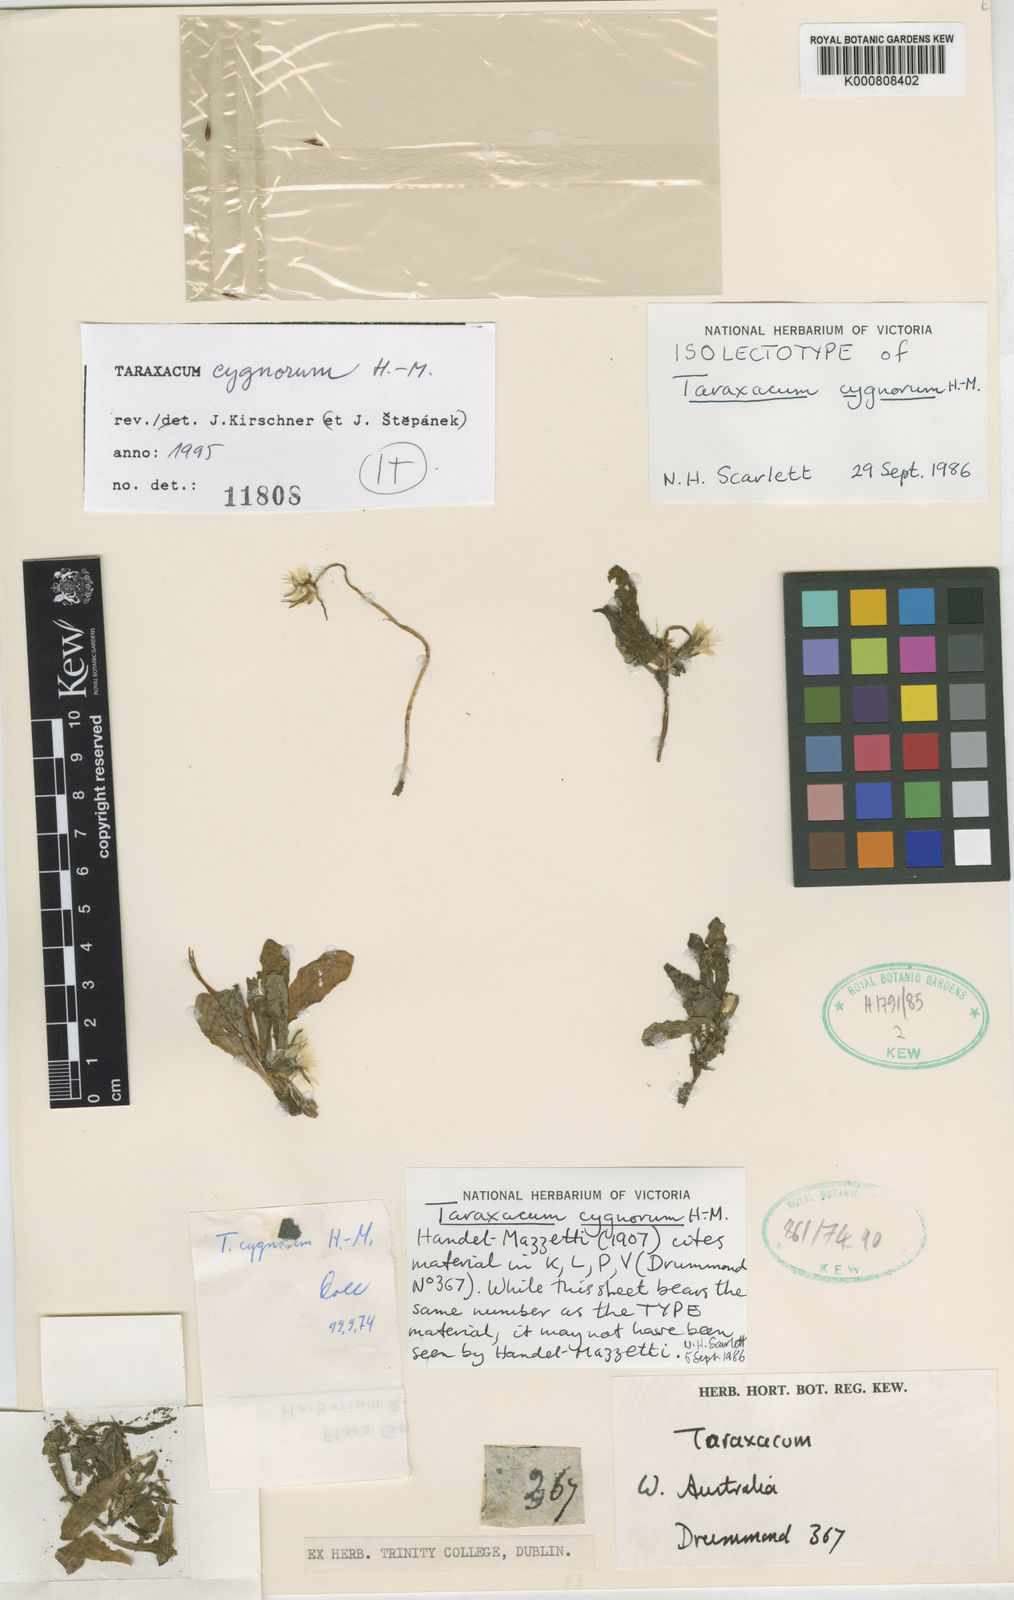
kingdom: Plantae
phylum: Tracheophyta
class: Magnoliopsida
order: Asterales
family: Asteraceae
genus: Taraxacum
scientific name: Taraxacum cygnorum
